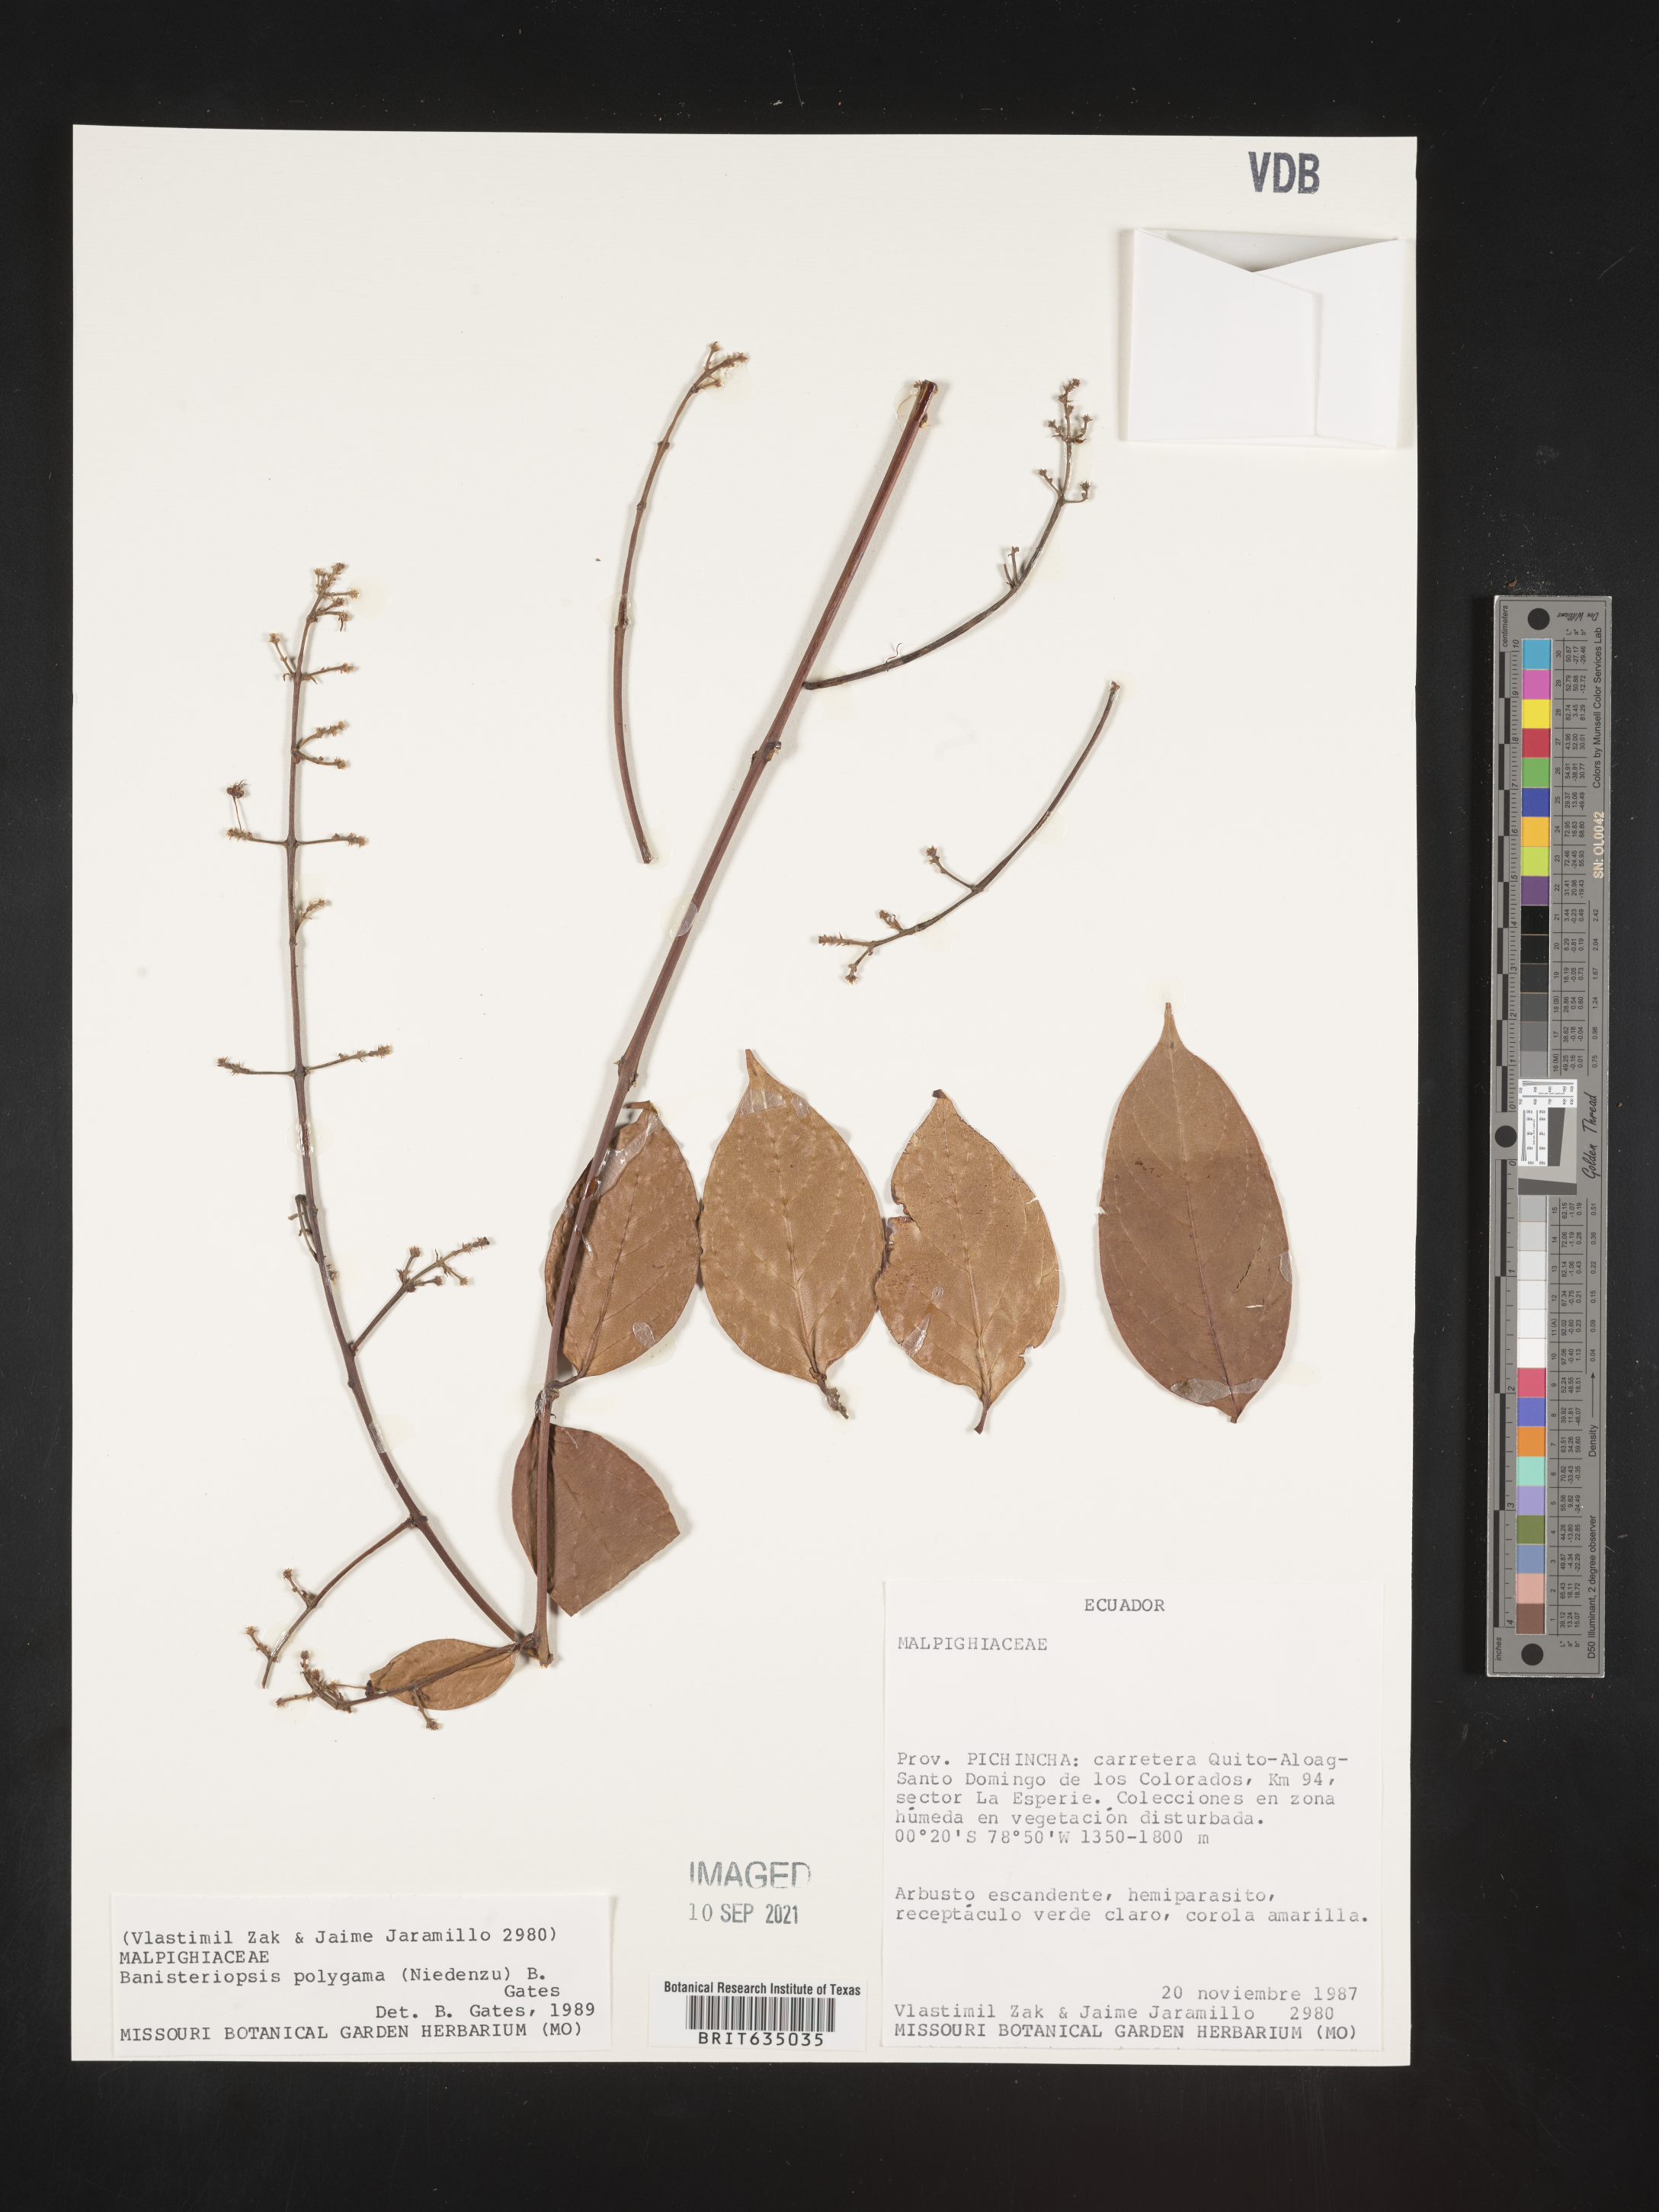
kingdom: Plantae
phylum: Tracheophyta
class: Magnoliopsida
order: Malpighiales
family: Malpighiaceae
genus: Banisteriopsis
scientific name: Banisteriopsis
